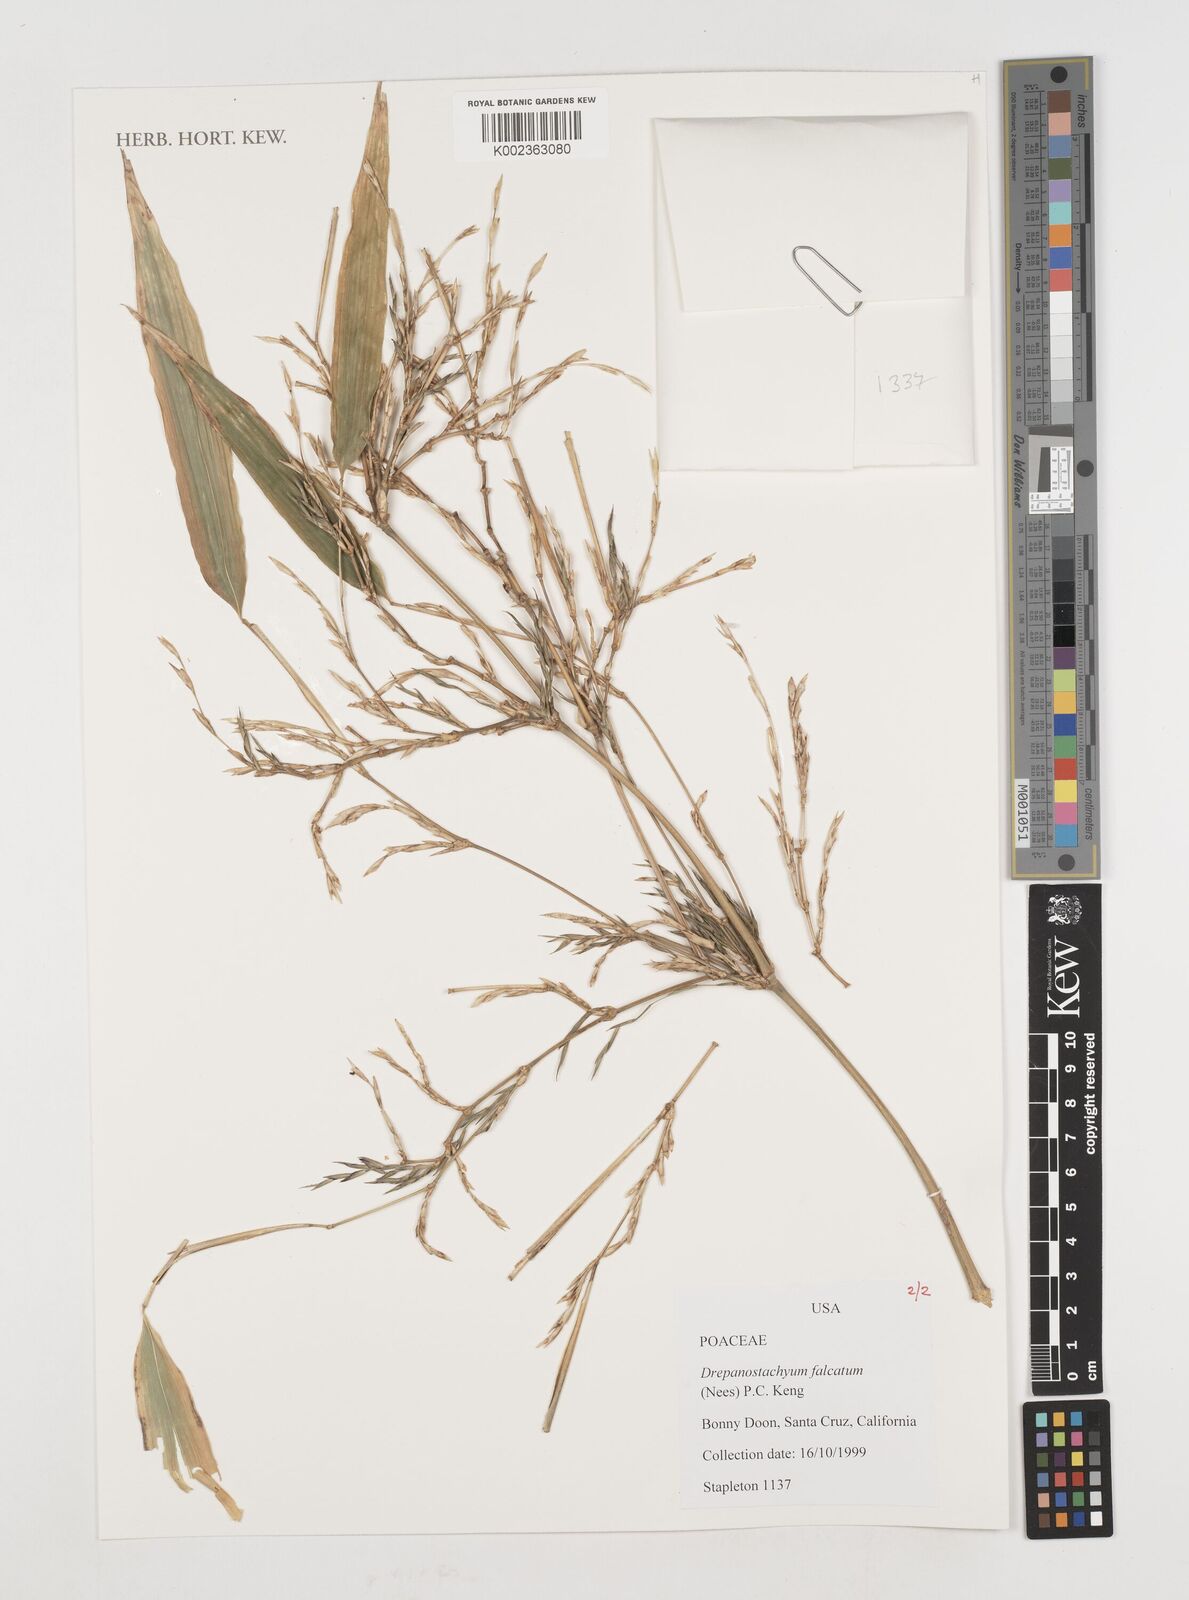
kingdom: Plantae
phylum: Tracheophyta
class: Liliopsida
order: Poales
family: Poaceae
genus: Drepanostachyum
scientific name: Drepanostachyum falcatum
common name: Himalayan bamboo
